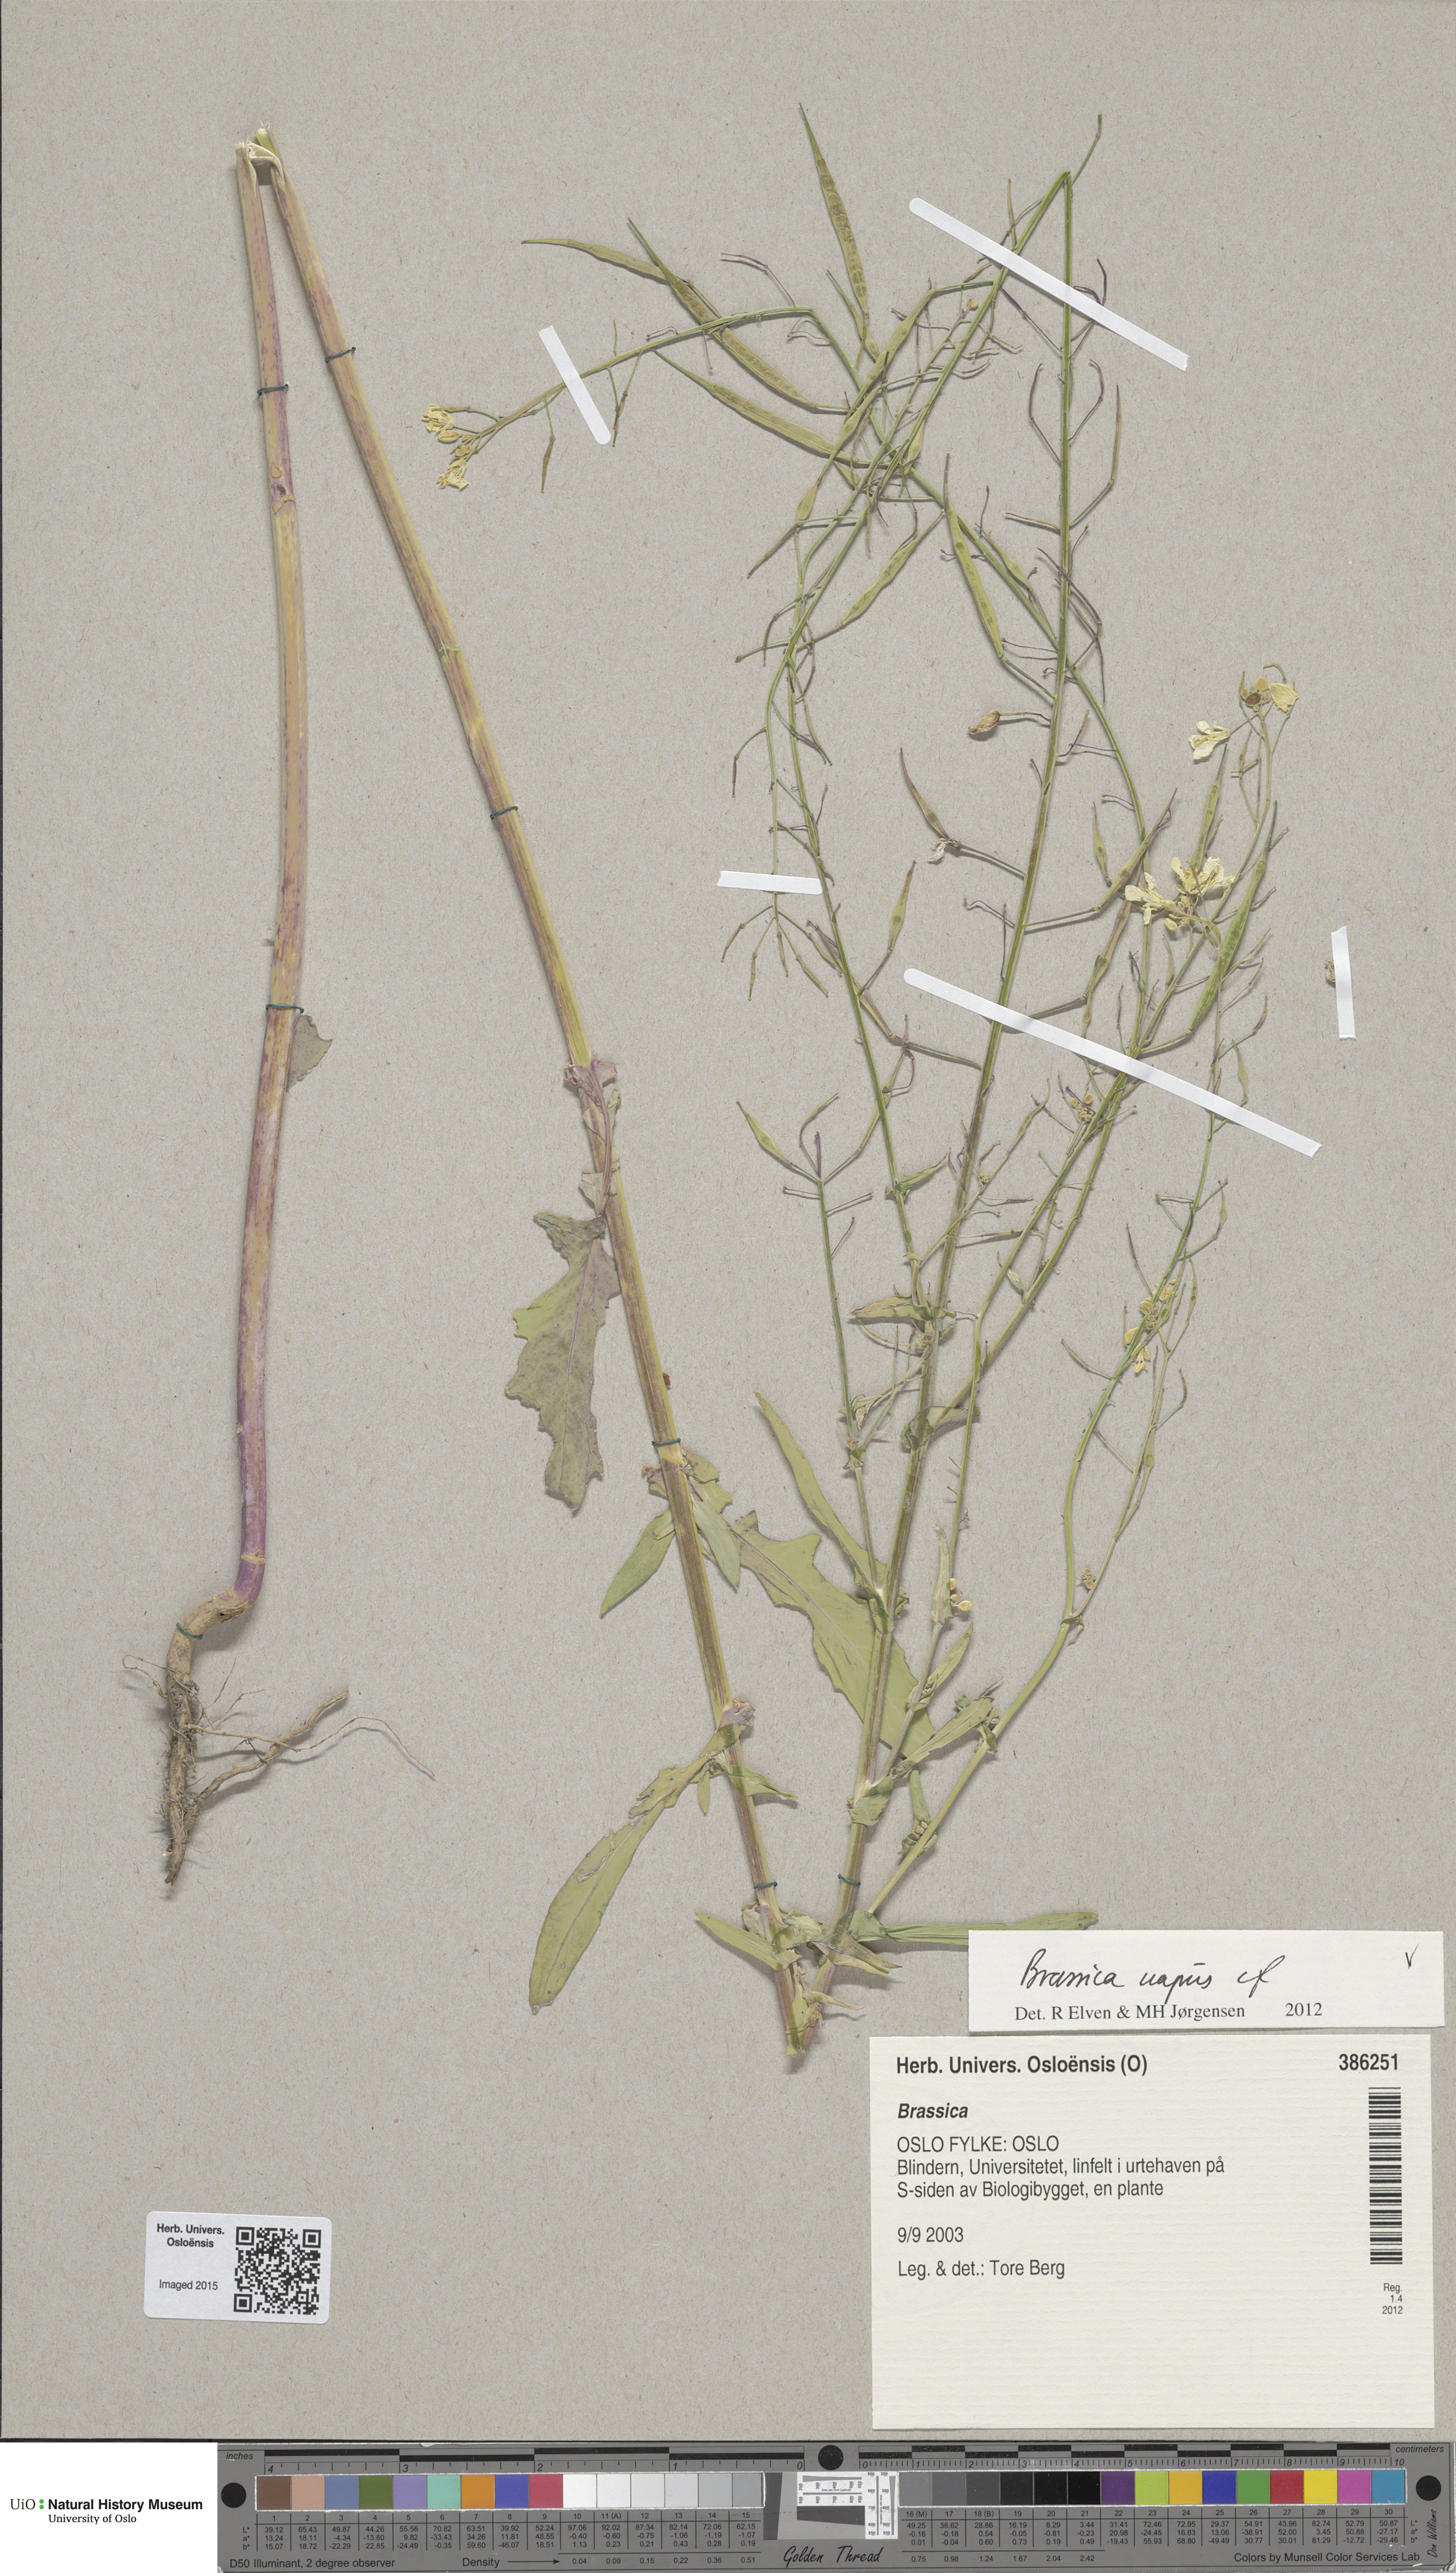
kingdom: Plantae
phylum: Tracheophyta
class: Magnoliopsida
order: Brassicales
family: Brassicaceae
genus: Brassica
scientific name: Brassica napus
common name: Rape
